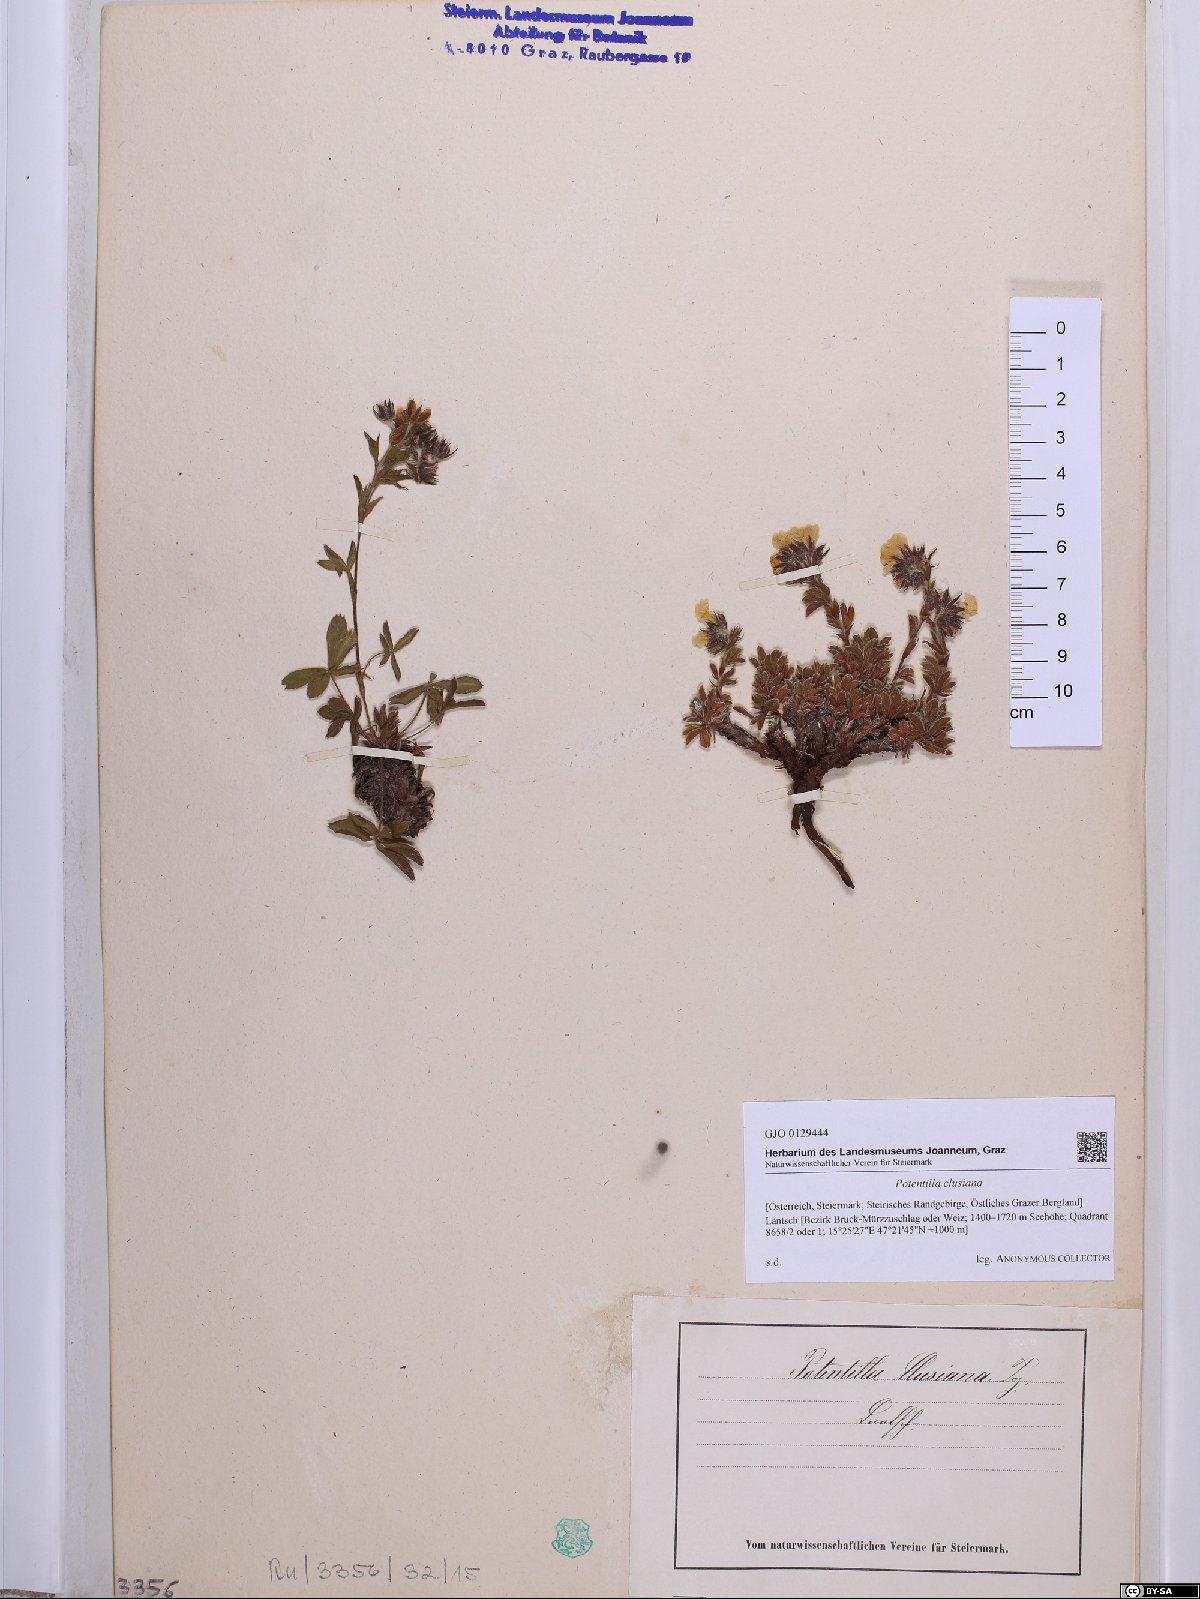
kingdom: Plantae
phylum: Tracheophyta
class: Magnoliopsida
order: Rosales
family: Rosaceae
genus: Potentilla
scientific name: Potentilla clusiana
